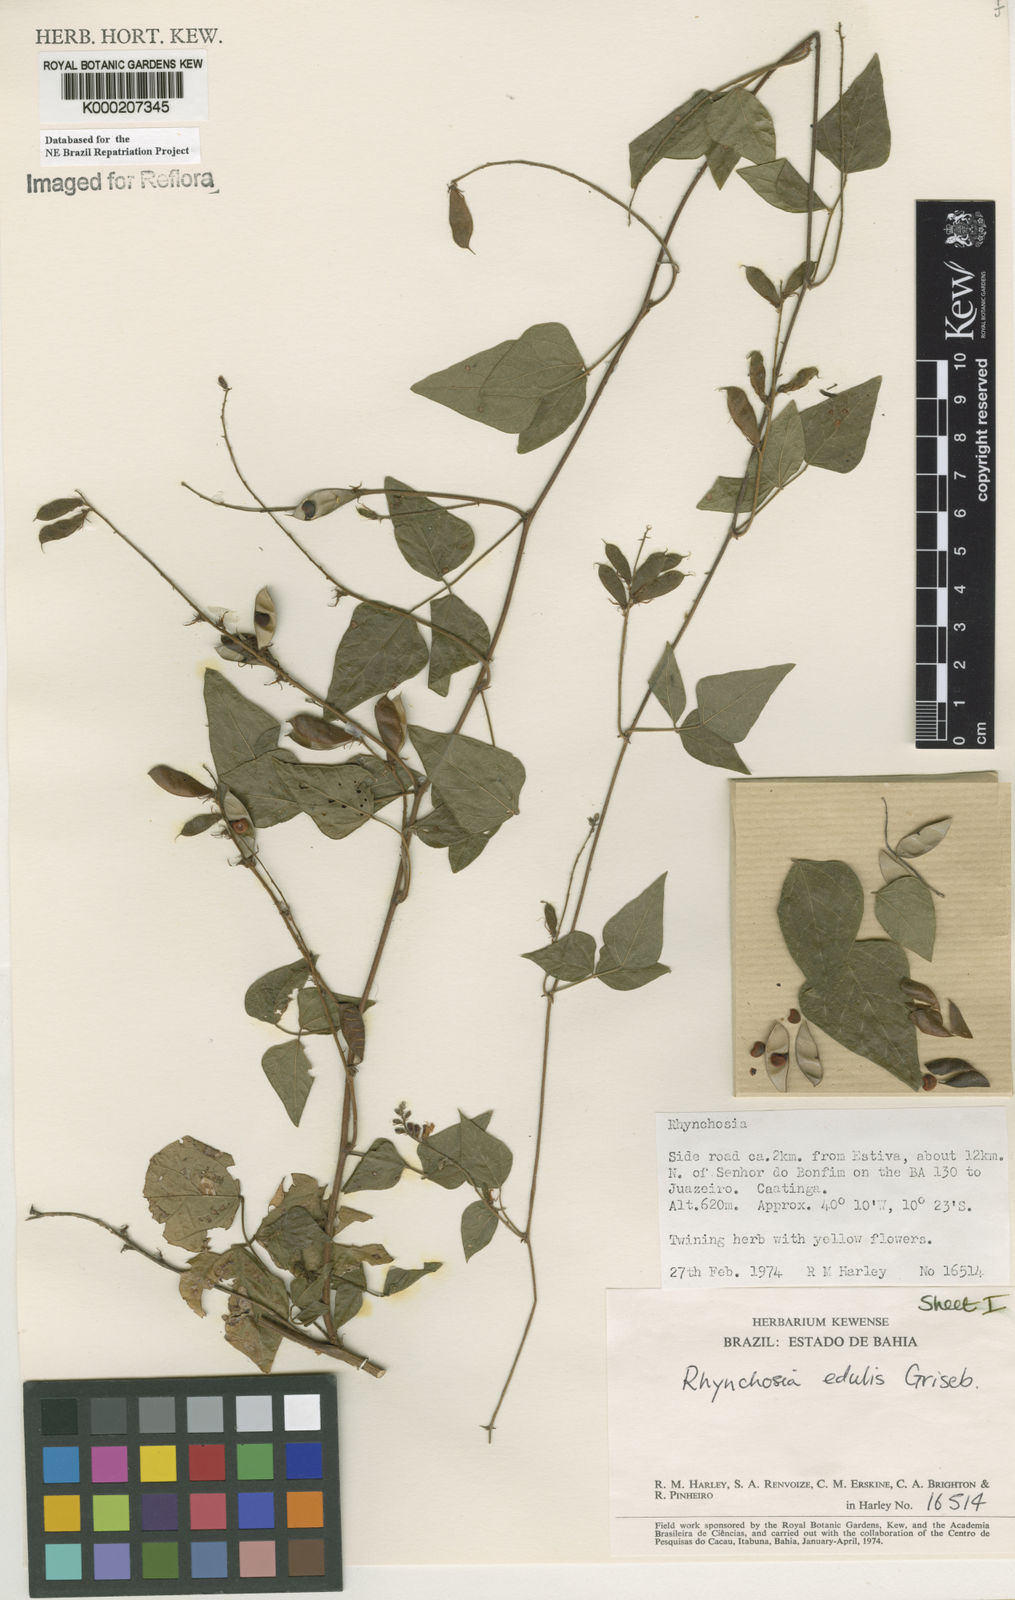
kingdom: Plantae
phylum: Tracheophyta
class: Magnoliopsida
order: Fabales
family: Fabaceae
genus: Rhynchosia
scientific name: Rhynchosia edulis
